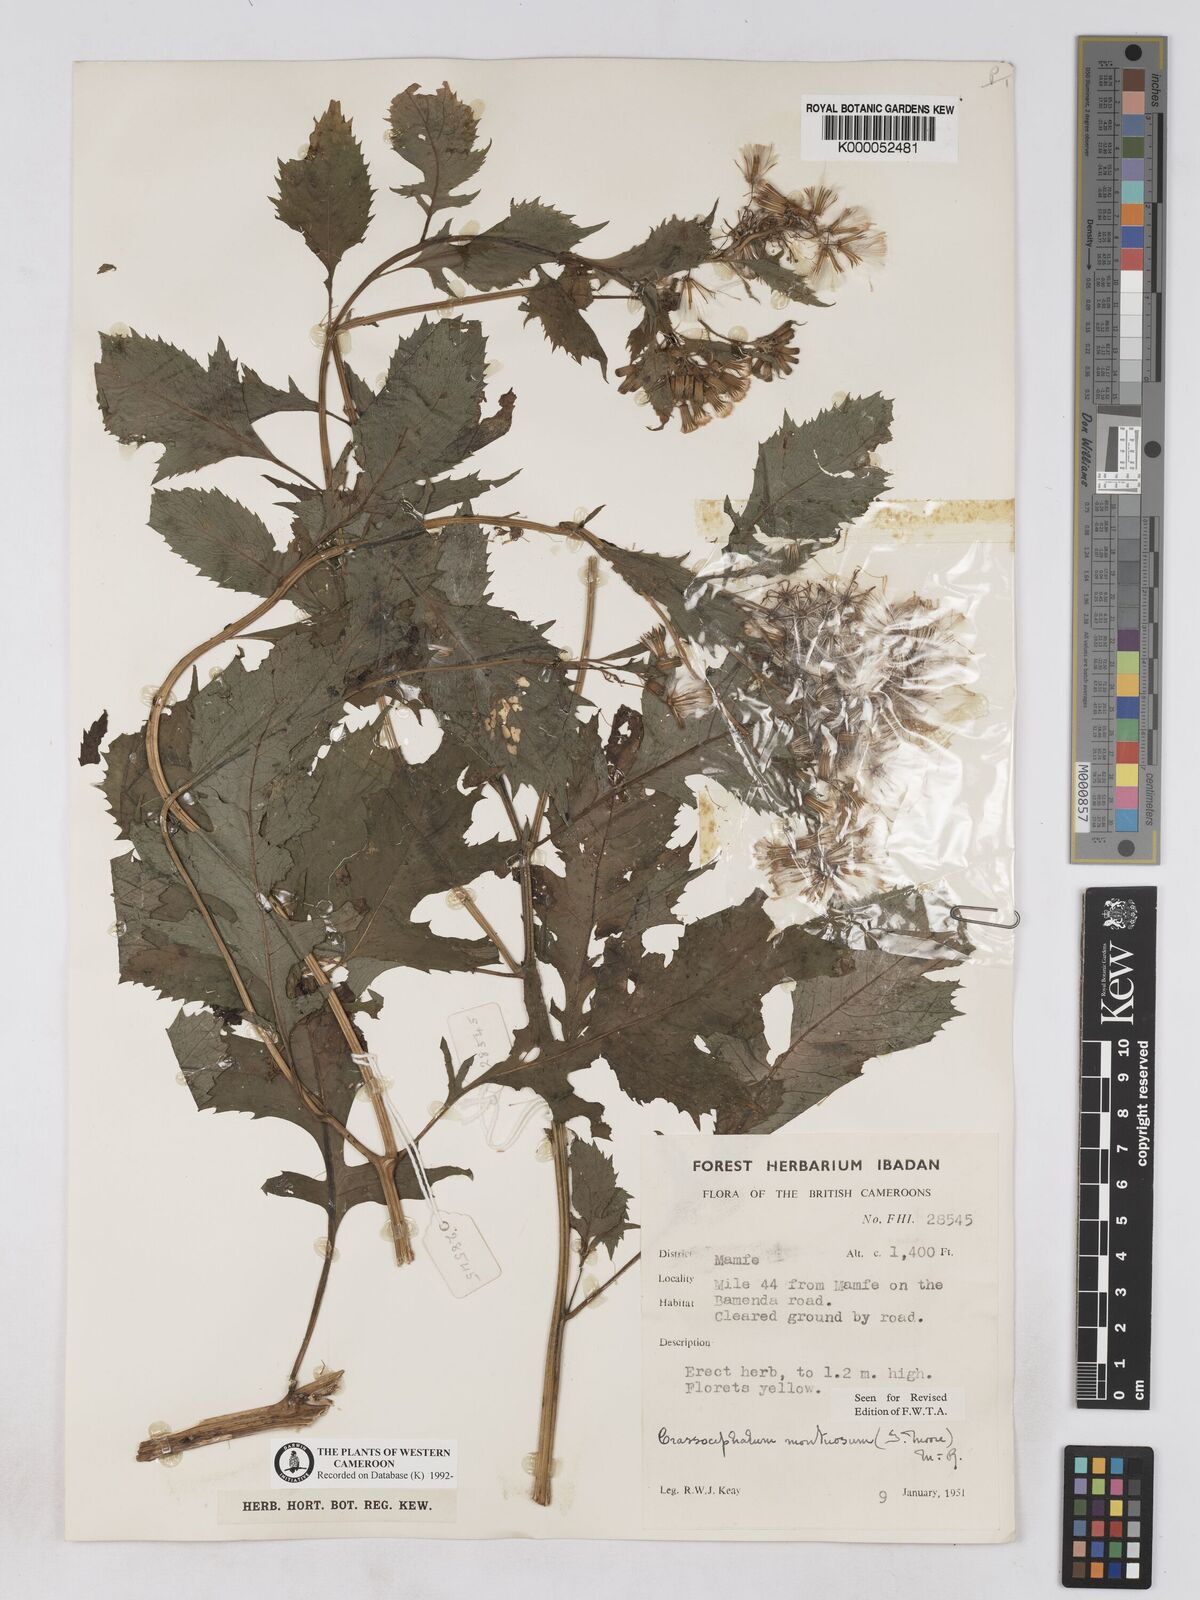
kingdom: Plantae
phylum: Tracheophyta
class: Magnoliopsida
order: Asterales
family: Asteraceae
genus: Crassocephalum
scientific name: Crassocephalum montuosum
